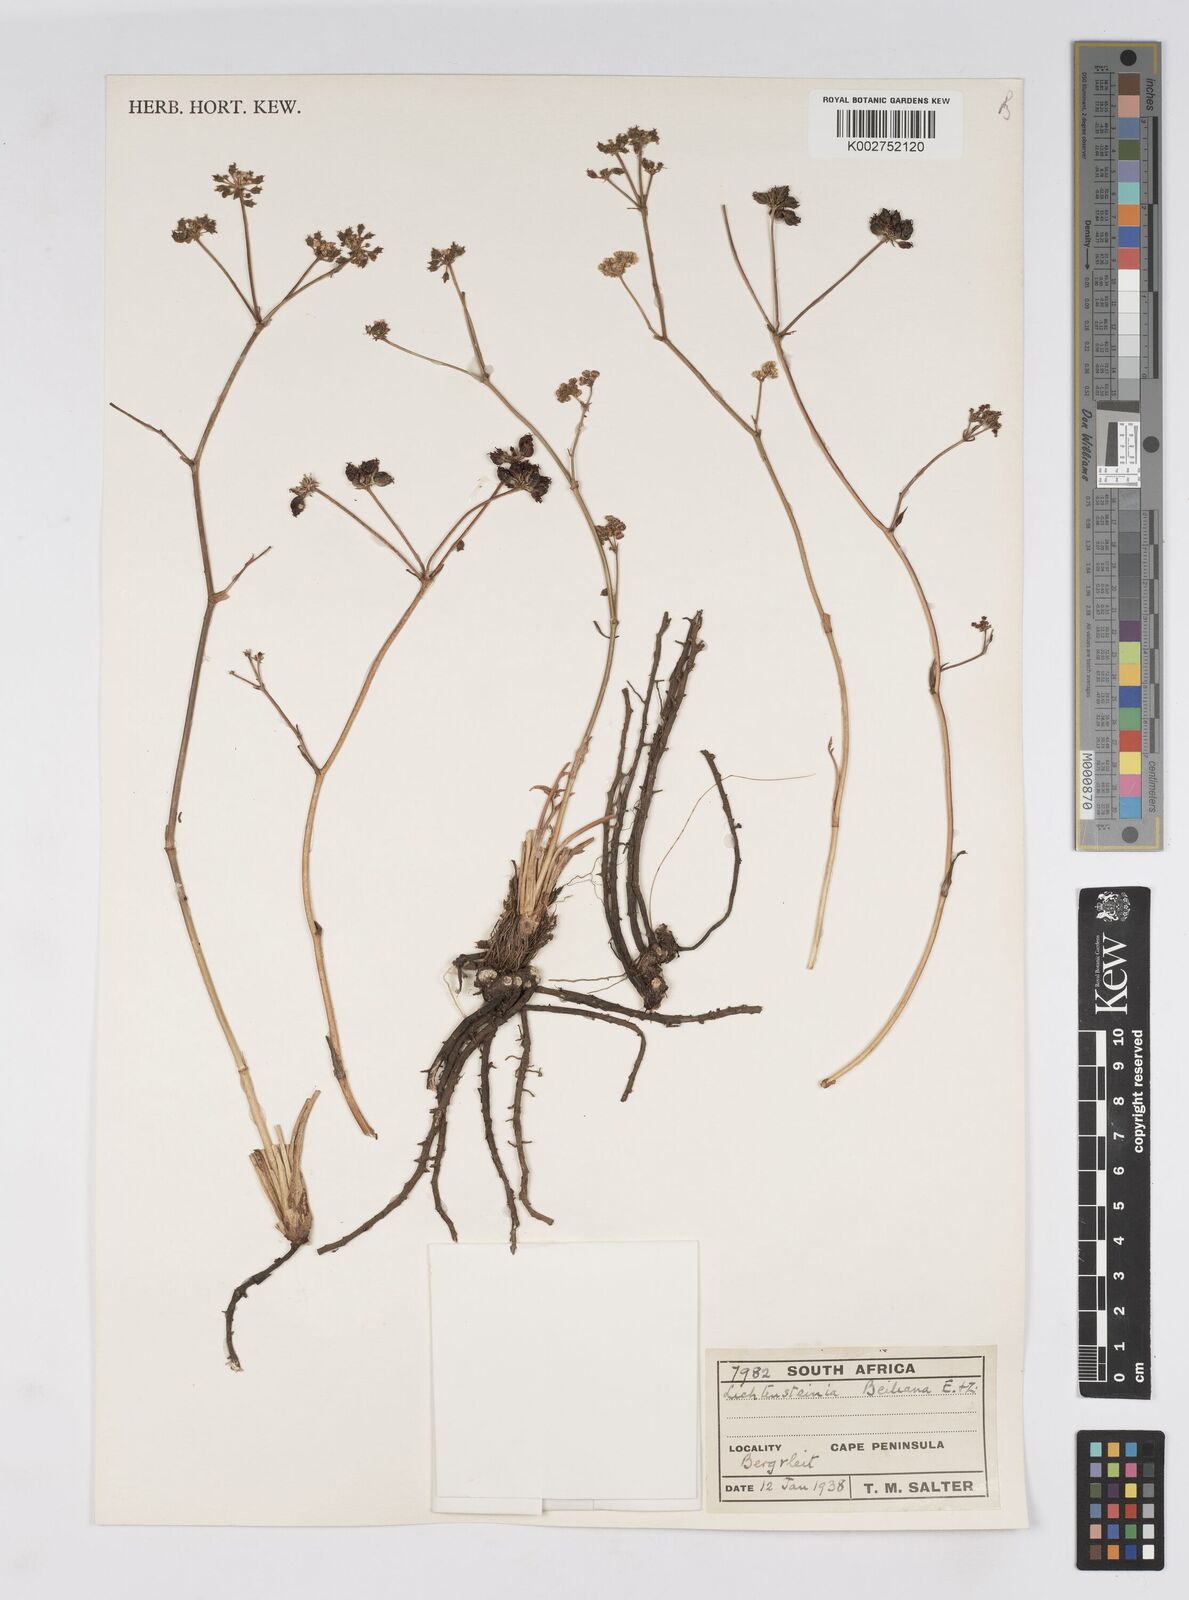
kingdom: Plantae
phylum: Tracheophyta
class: Magnoliopsida
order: Apiales
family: Apiaceae
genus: Lichtensteinia
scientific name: Lichtensteinia obscura
